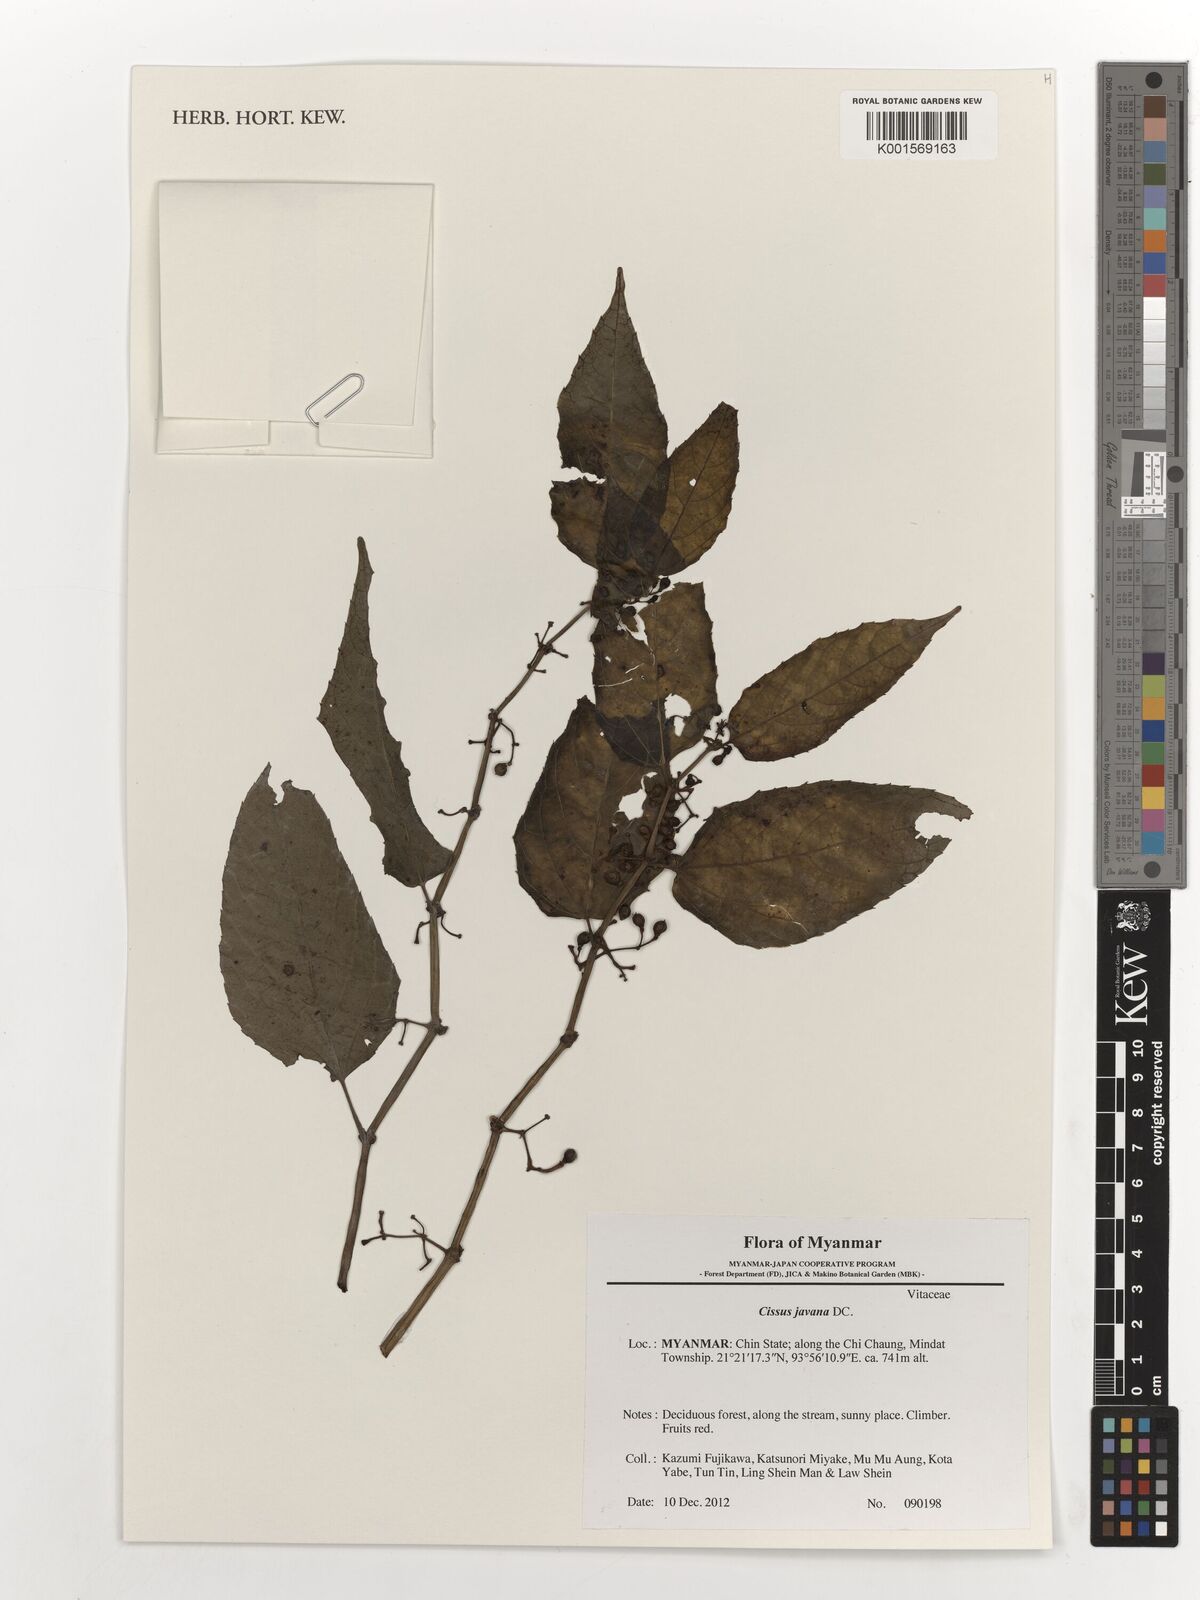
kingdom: Plantae
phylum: Tracheophyta
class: Magnoliopsida
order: Vitales
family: Vitaceae
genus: Cissus
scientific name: Cissus discolor
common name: Climbing-begonia
